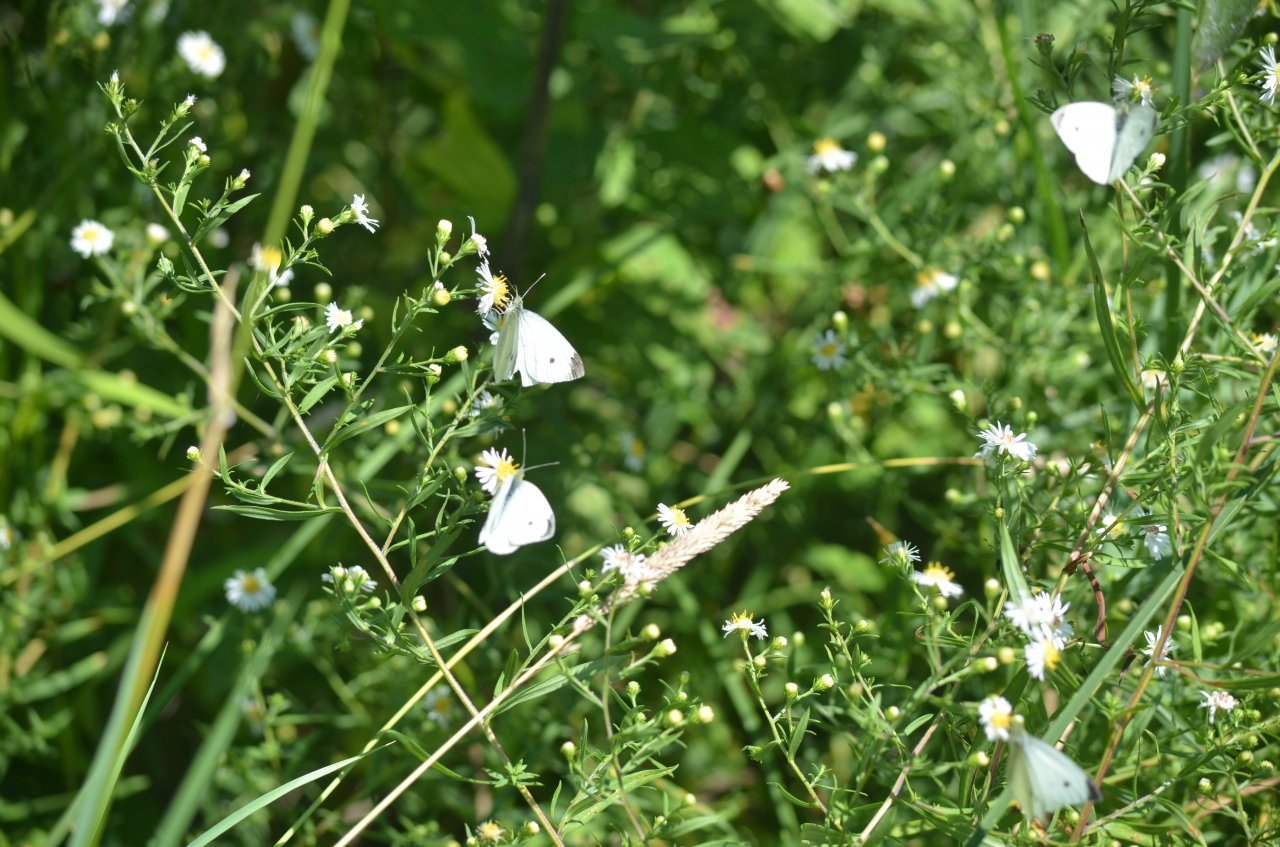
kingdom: Animalia
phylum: Arthropoda
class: Insecta
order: Lepidoptera
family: Pieridae
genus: Pieris
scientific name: Pieris rapae
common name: Cabbage White
